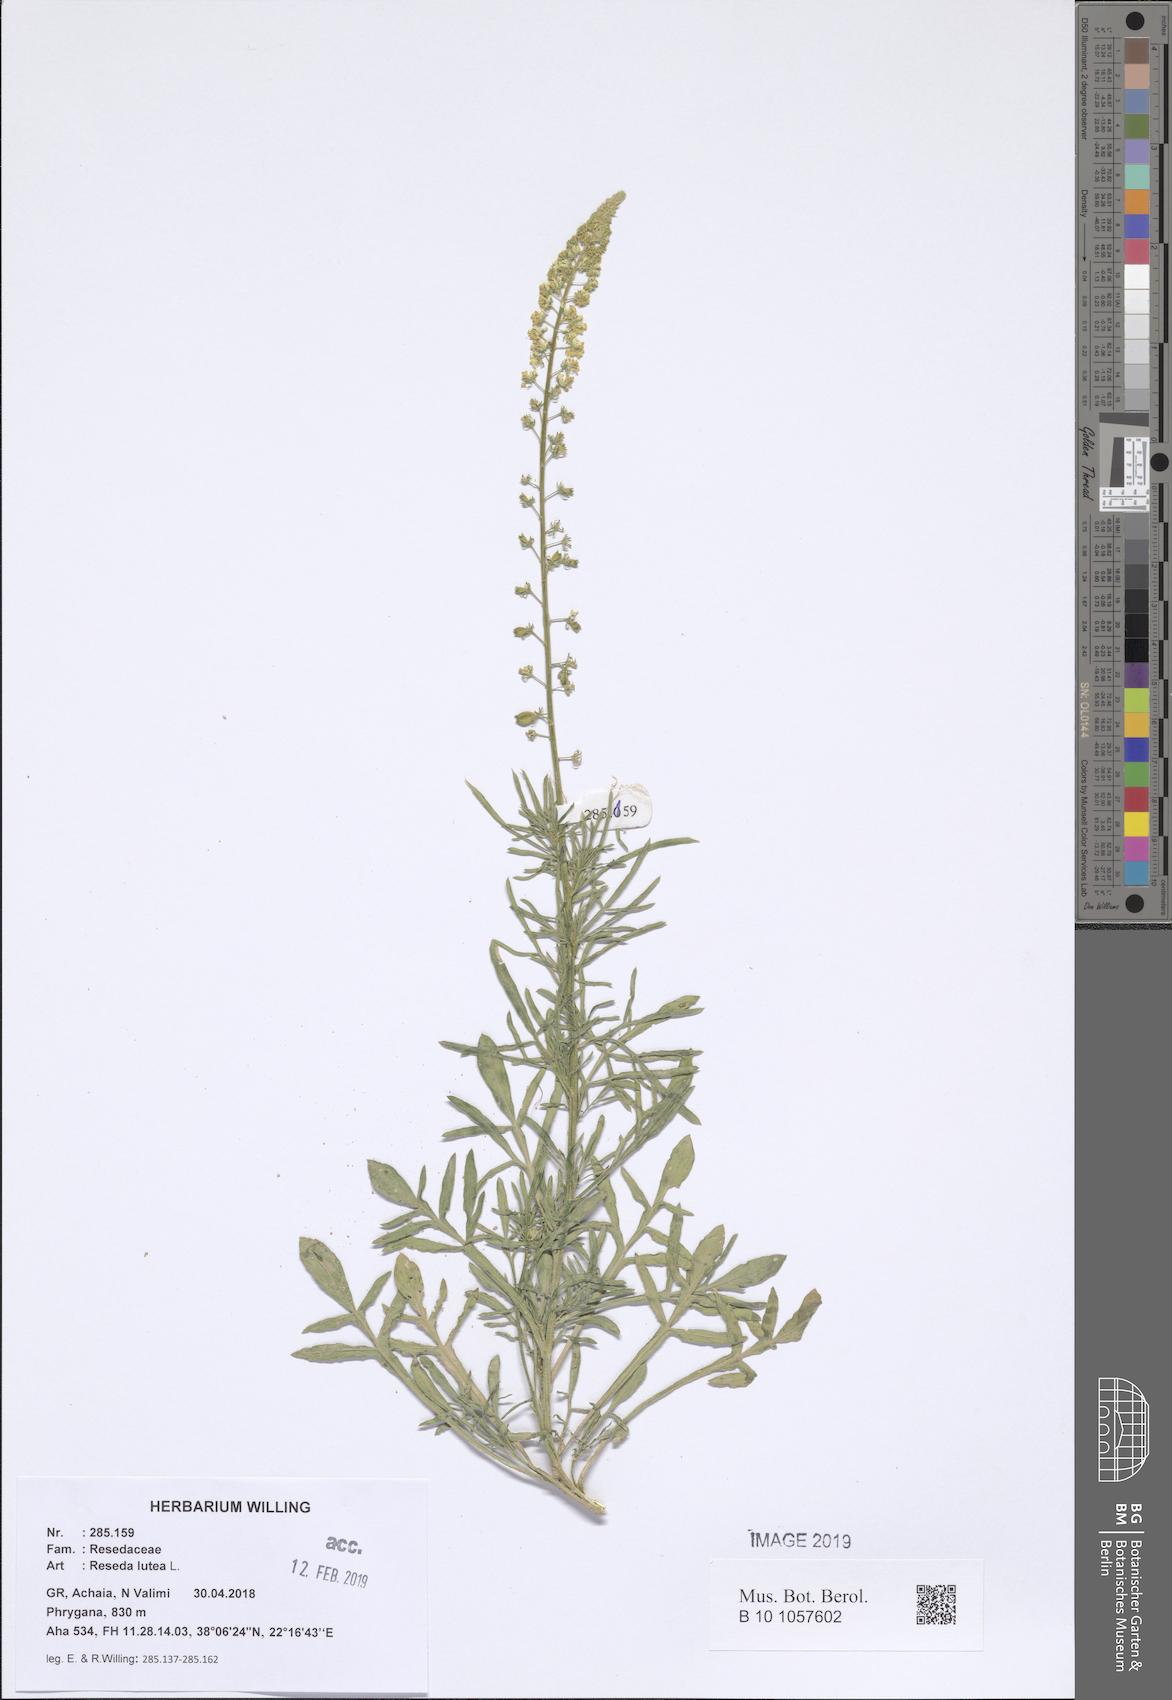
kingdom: Plantae
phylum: Tracheophyta
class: Magnoliopsida
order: Brassicales
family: Resedaceae
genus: Reseda
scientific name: Reseda lutea
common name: Wild mignonette
